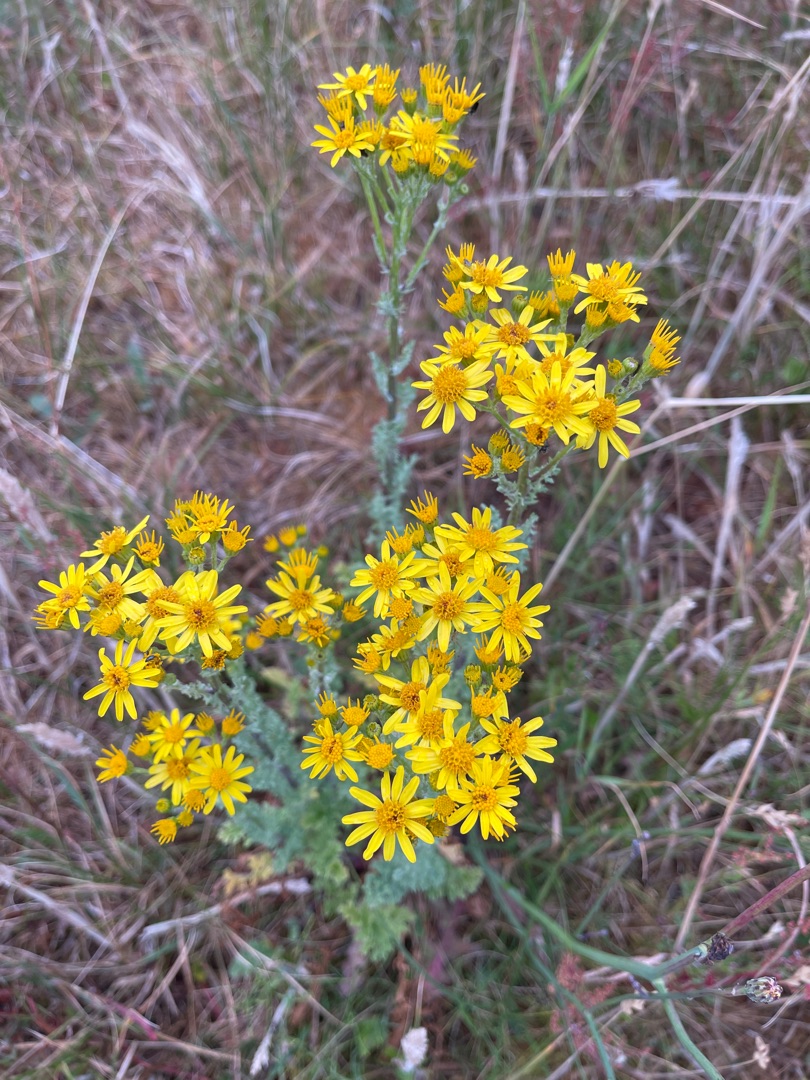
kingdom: Plantae
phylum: Tracheophyta
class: Magnoliopsida
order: Asterales
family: Asteraceae
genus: Jacobaea
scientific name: Jacobaea vulgaris
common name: Eng-brandbæger
